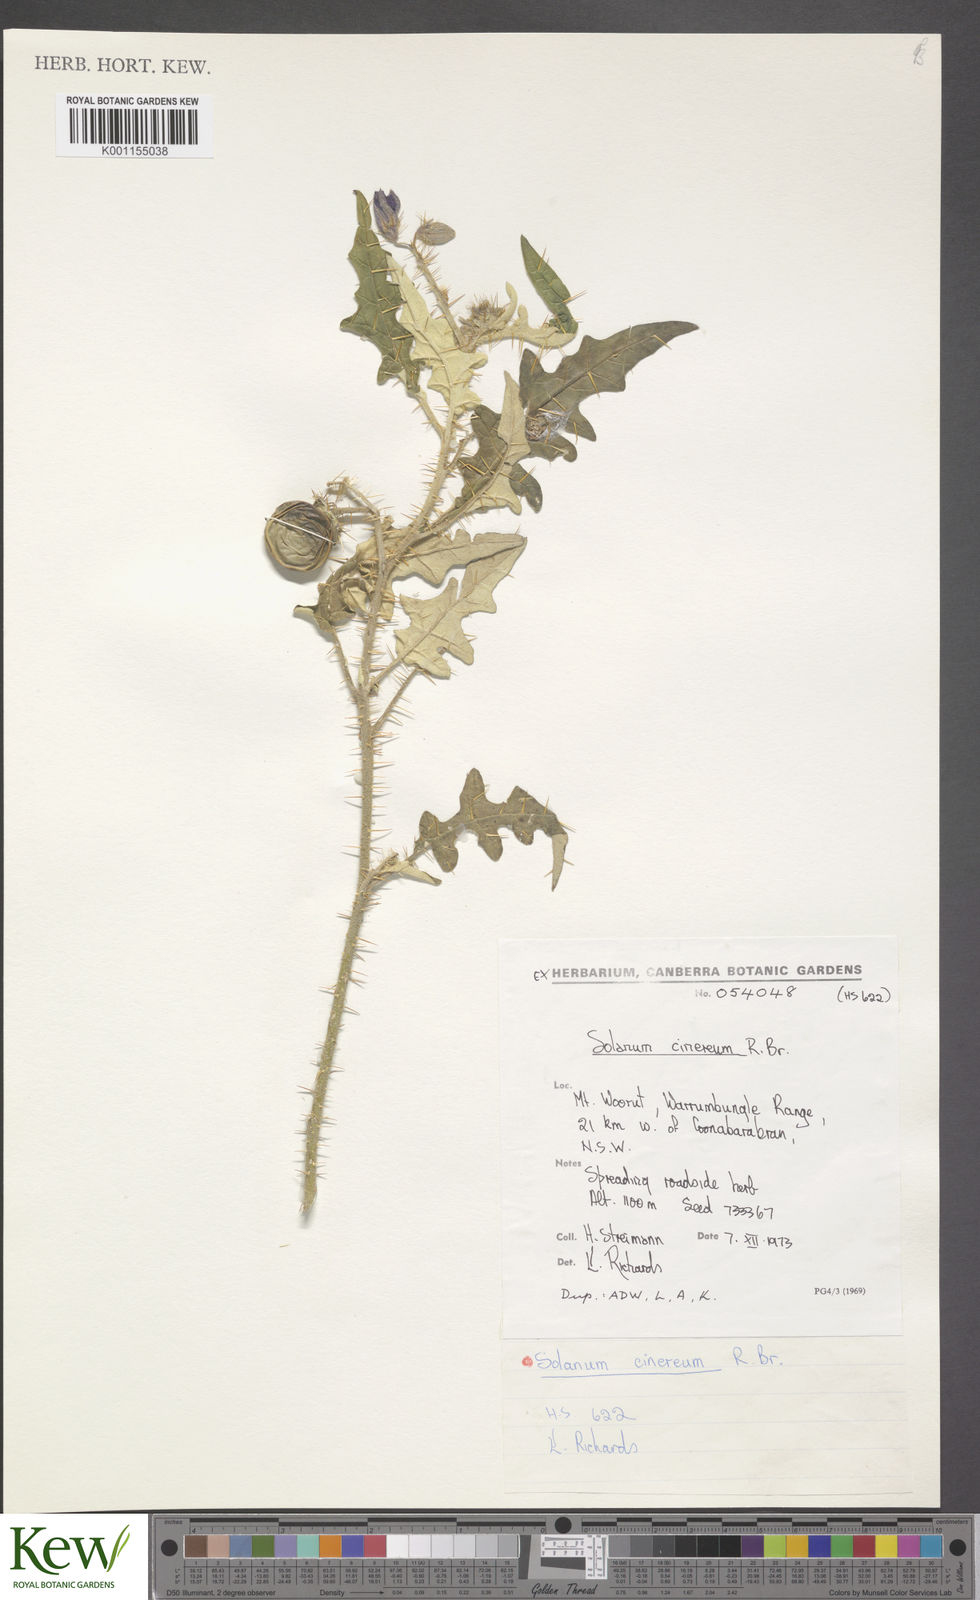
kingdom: Plantae
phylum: Tracheophyta
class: Magnoliopsida
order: Solanales
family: Solanaceae
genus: Solanum
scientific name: Solanum cinereum
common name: Narrawa-bur
